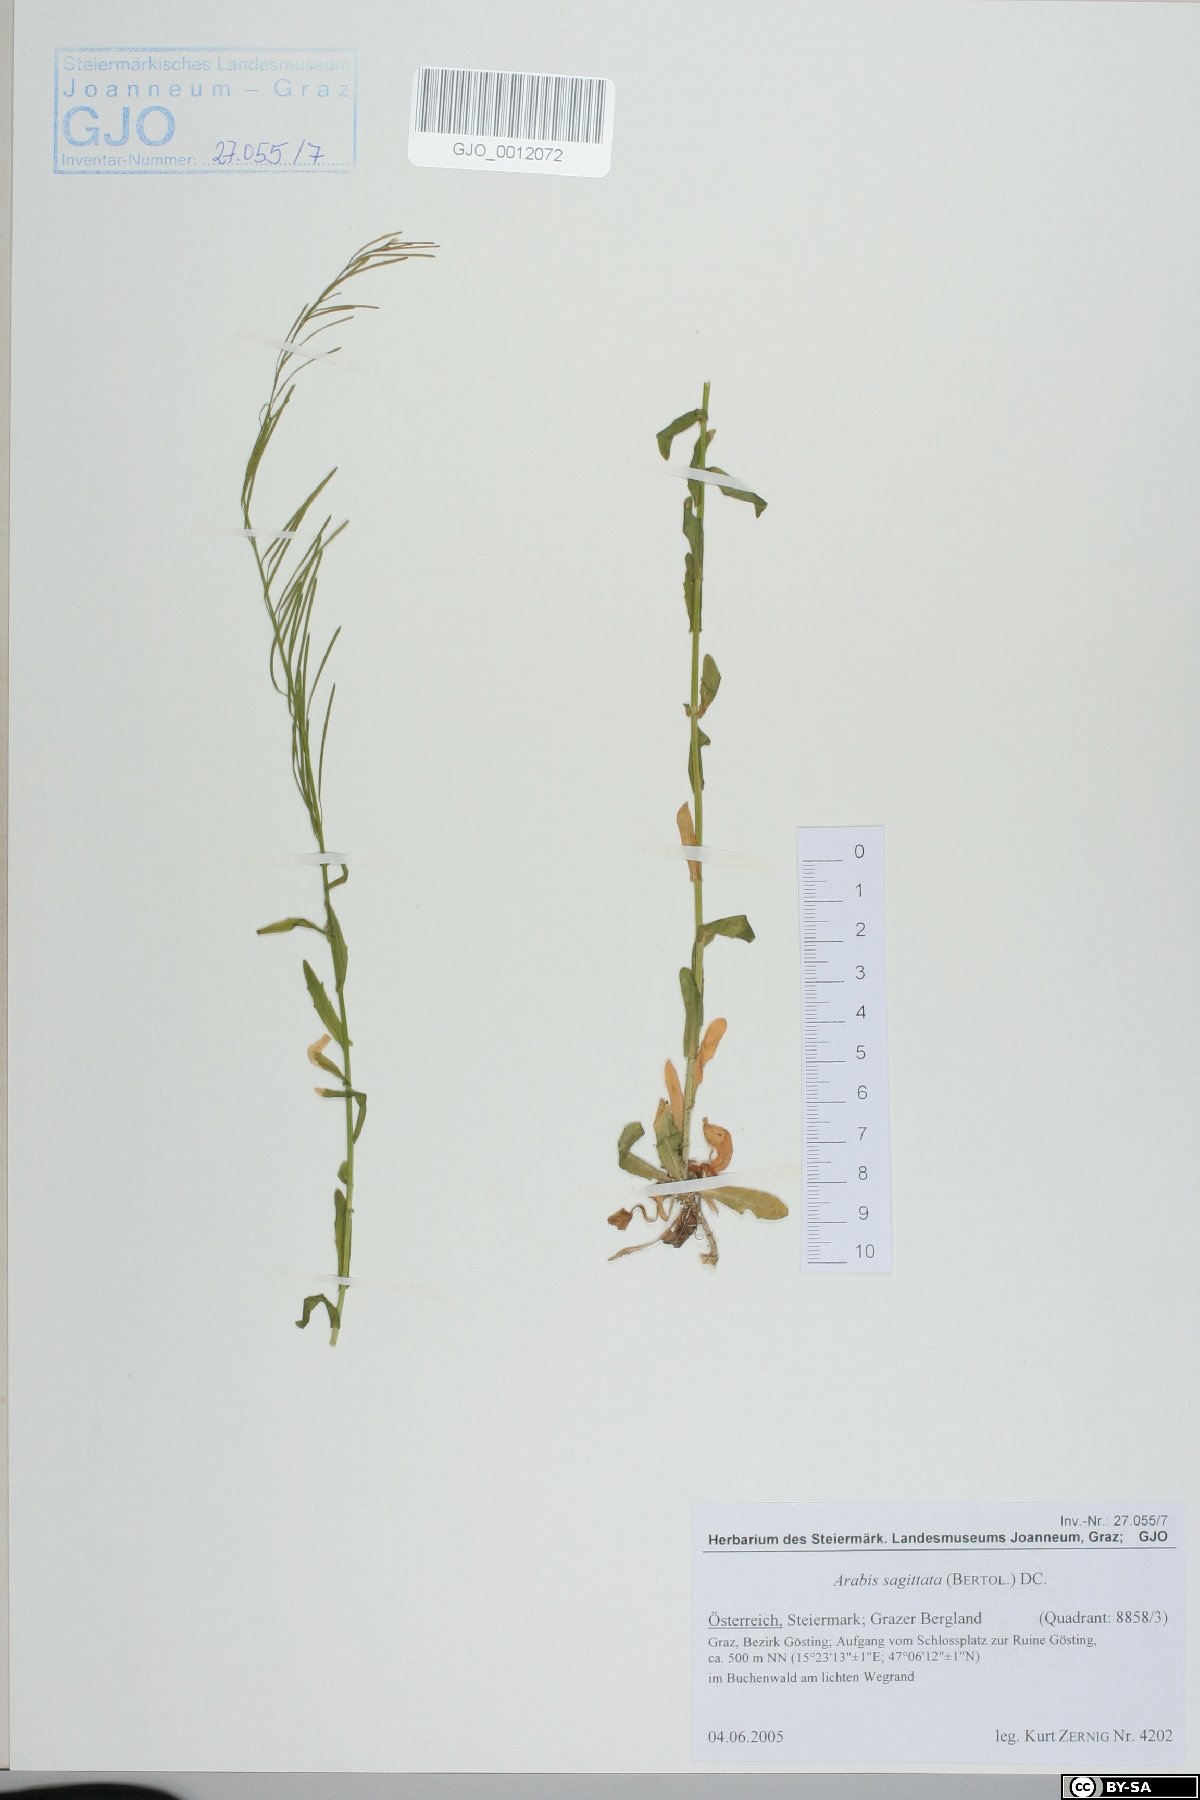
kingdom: Plantae
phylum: Tracheophyta
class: Magnoliopsida
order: Brassicales
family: Brassicaceae
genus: Arabis
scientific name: Arabis sagittata
